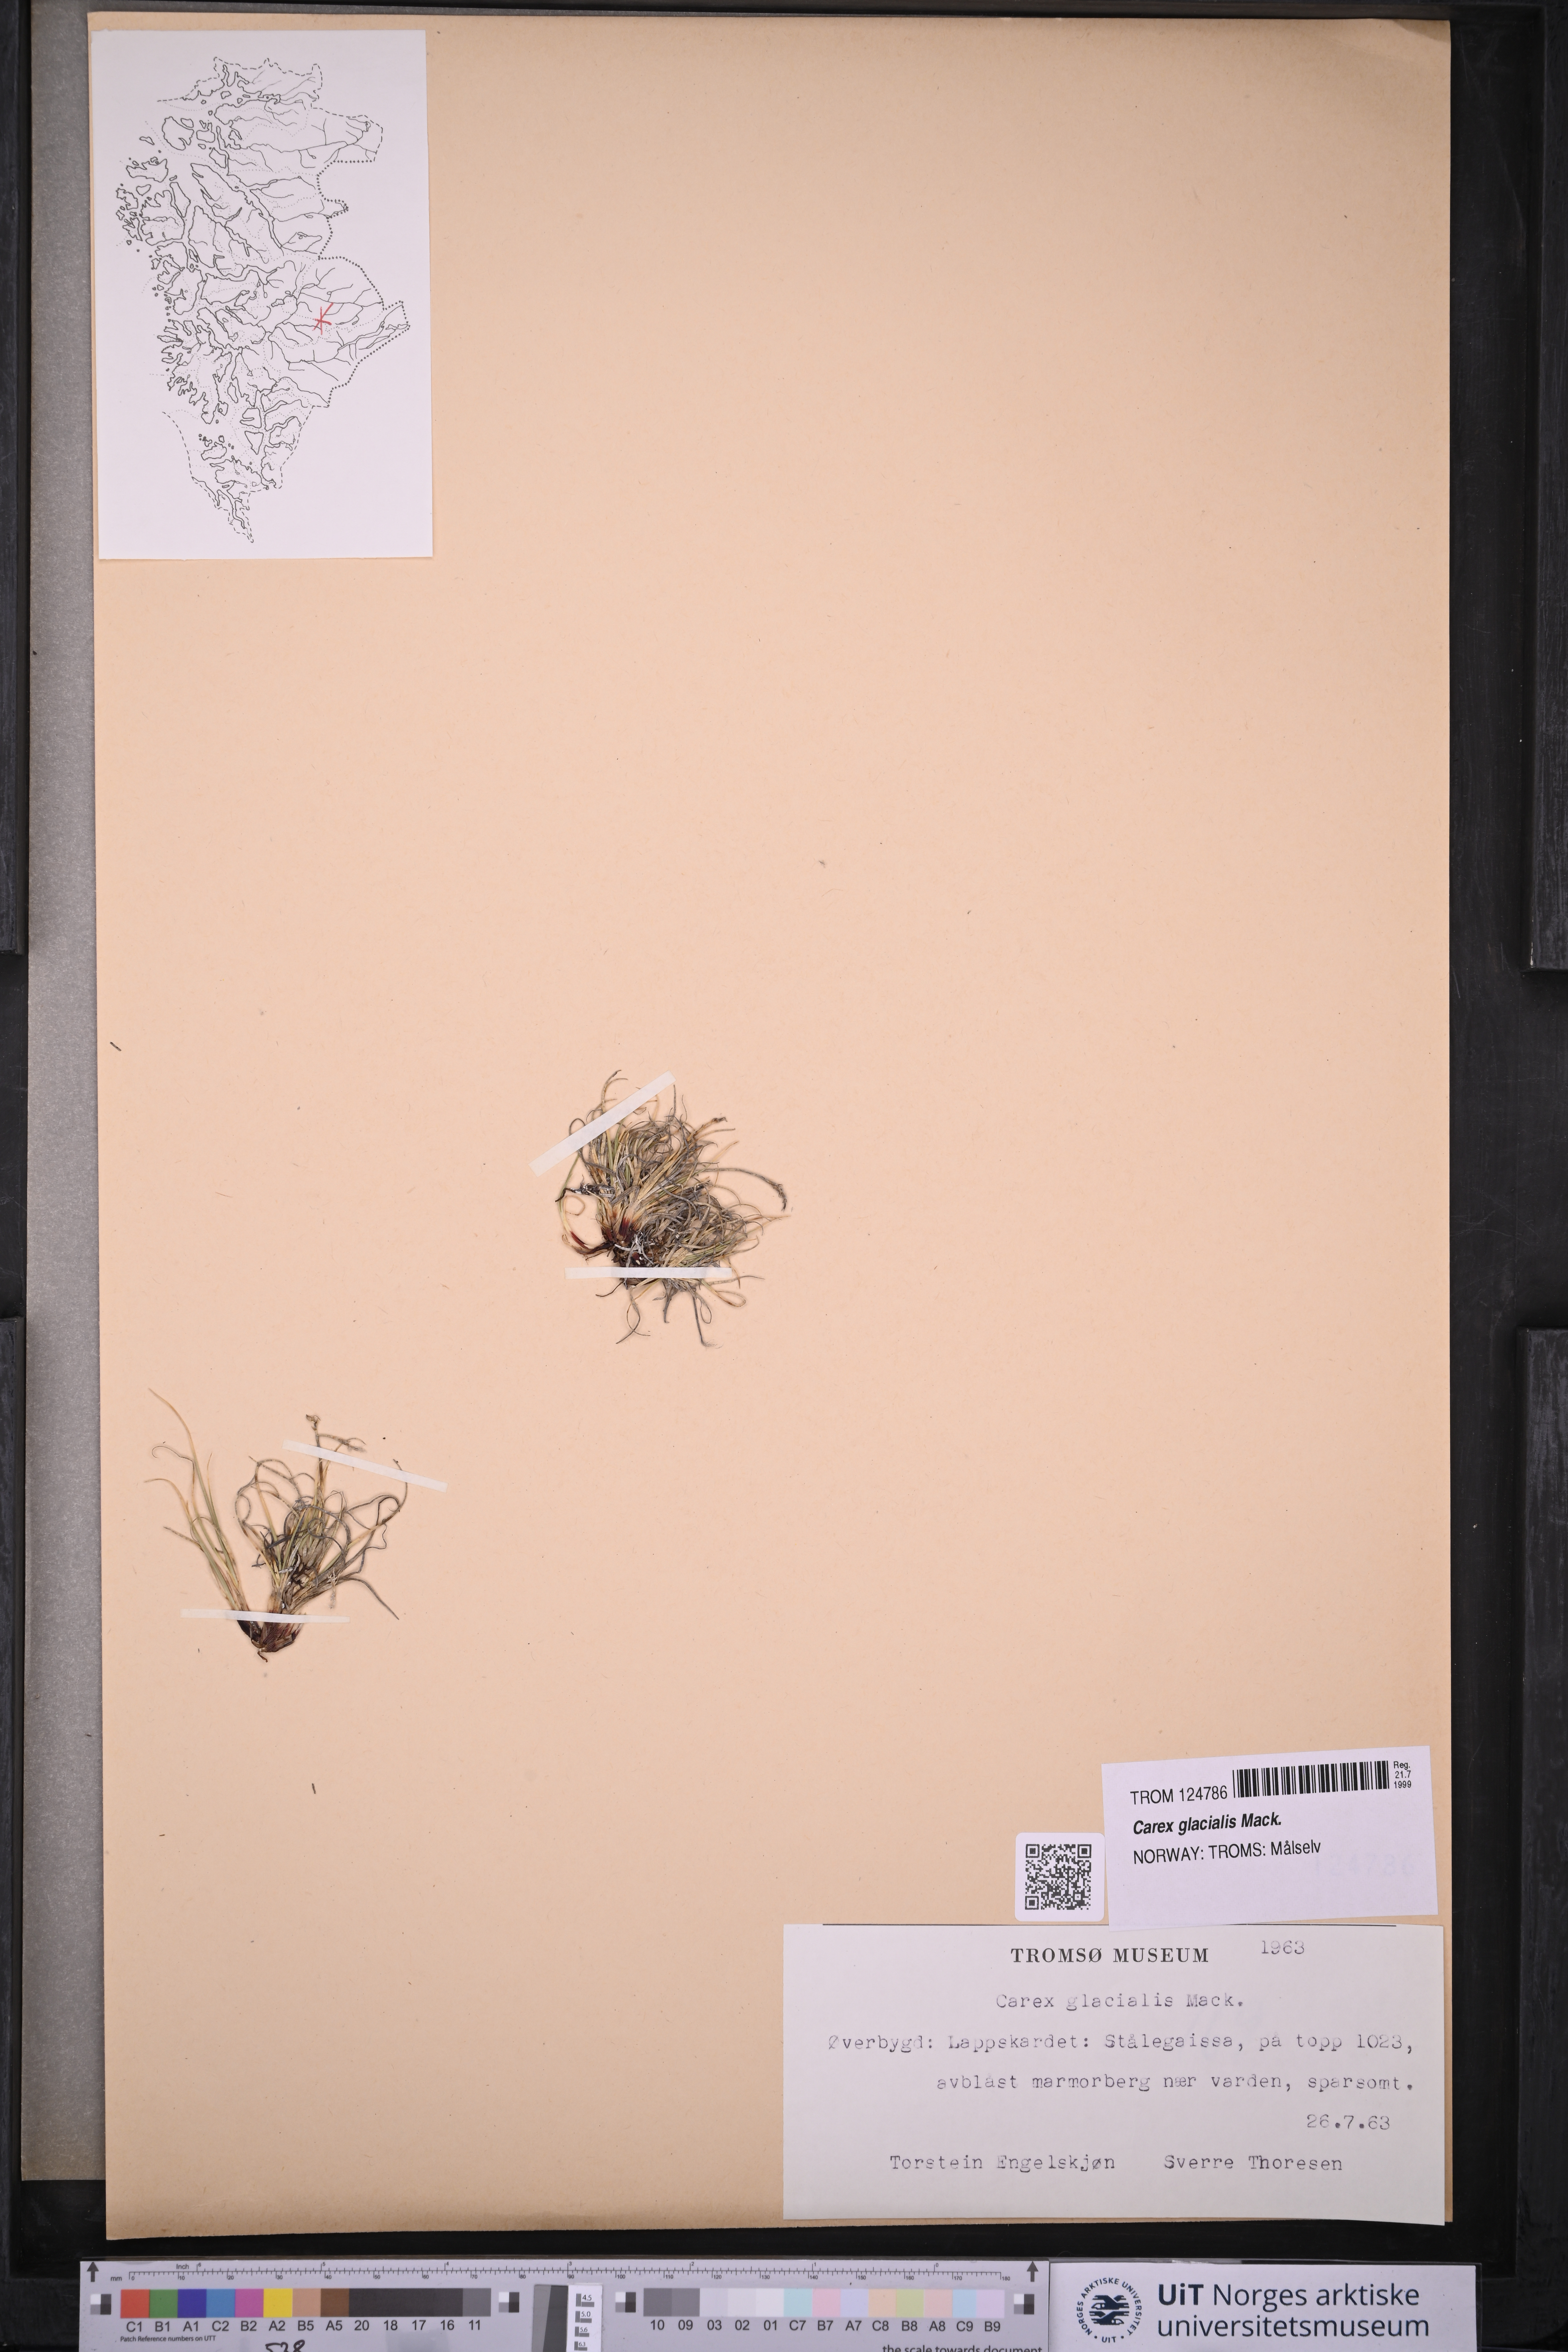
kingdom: Plantae
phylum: Tracheophyta
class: Liliopsida
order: Poales
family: Cyperaceae
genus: Carex
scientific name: Carex glacialis
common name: Newfoundland sedge
